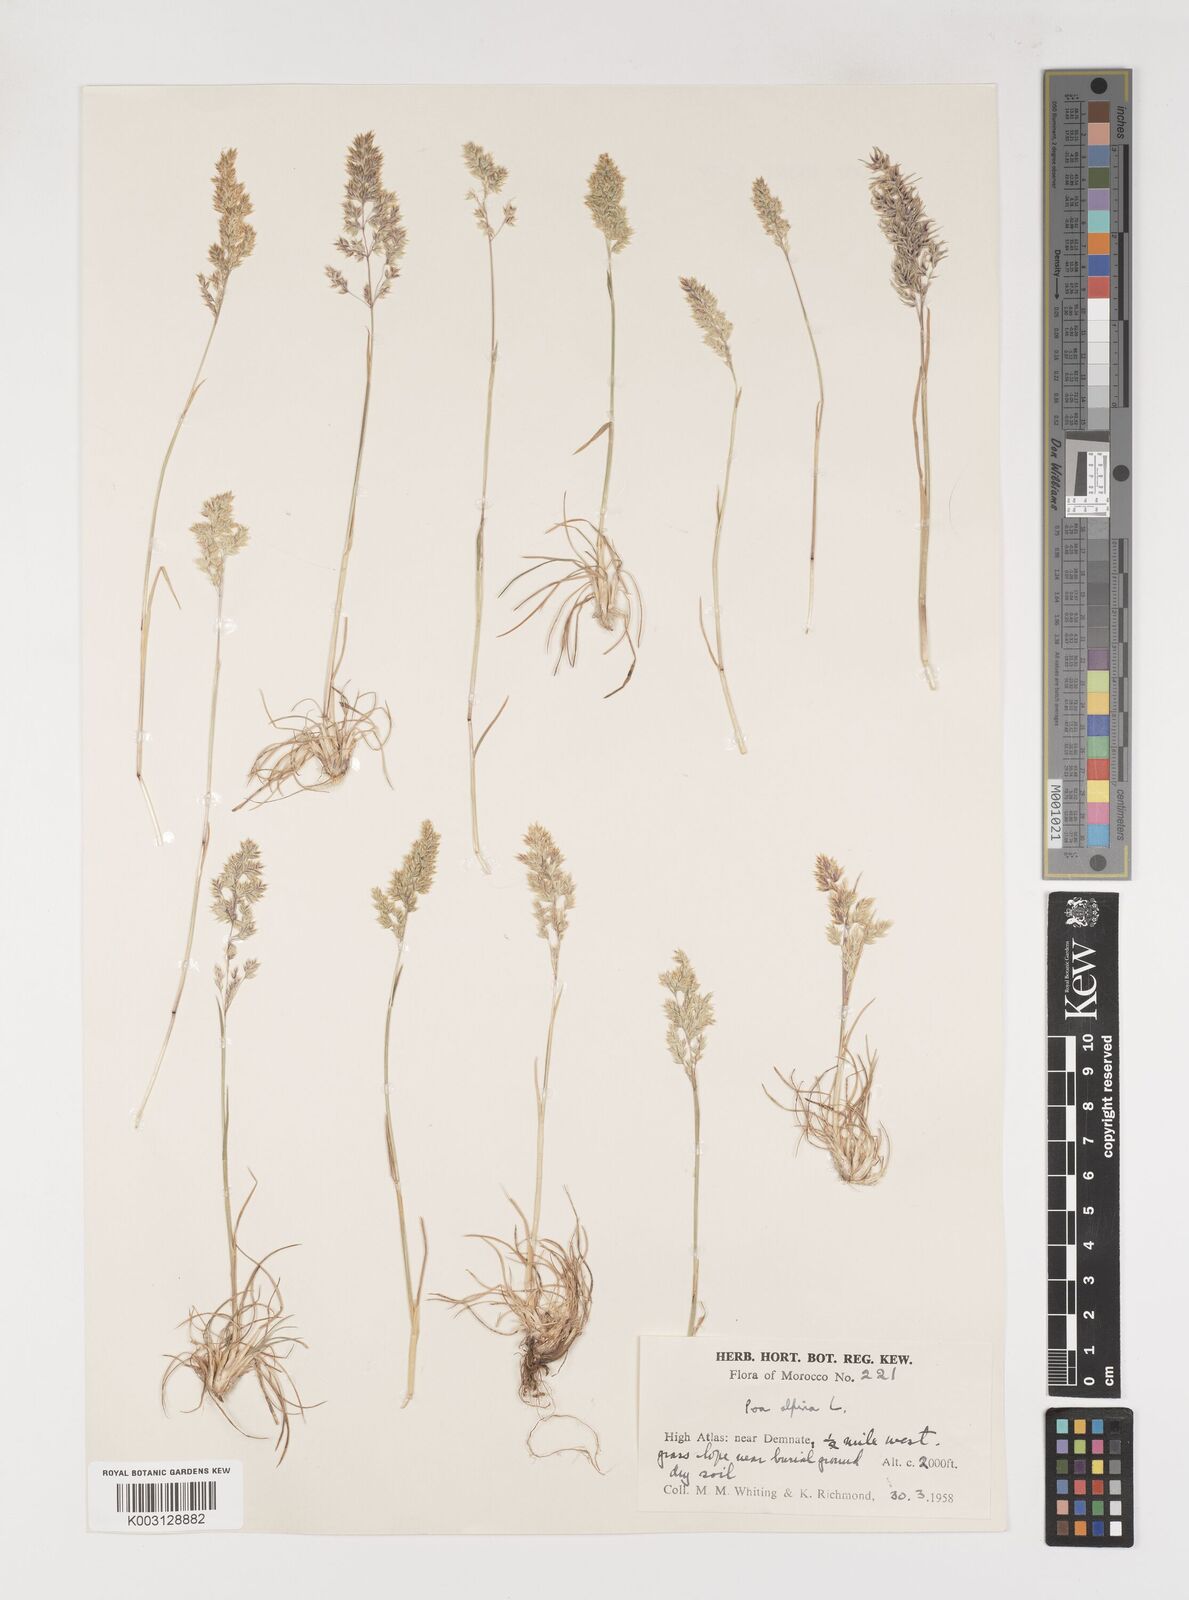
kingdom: Plantae
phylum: Tracheophyta
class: Liliopsida
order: Poales
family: Poaceae
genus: Poa
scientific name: Poa alpina
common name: Alpine bluegrass
